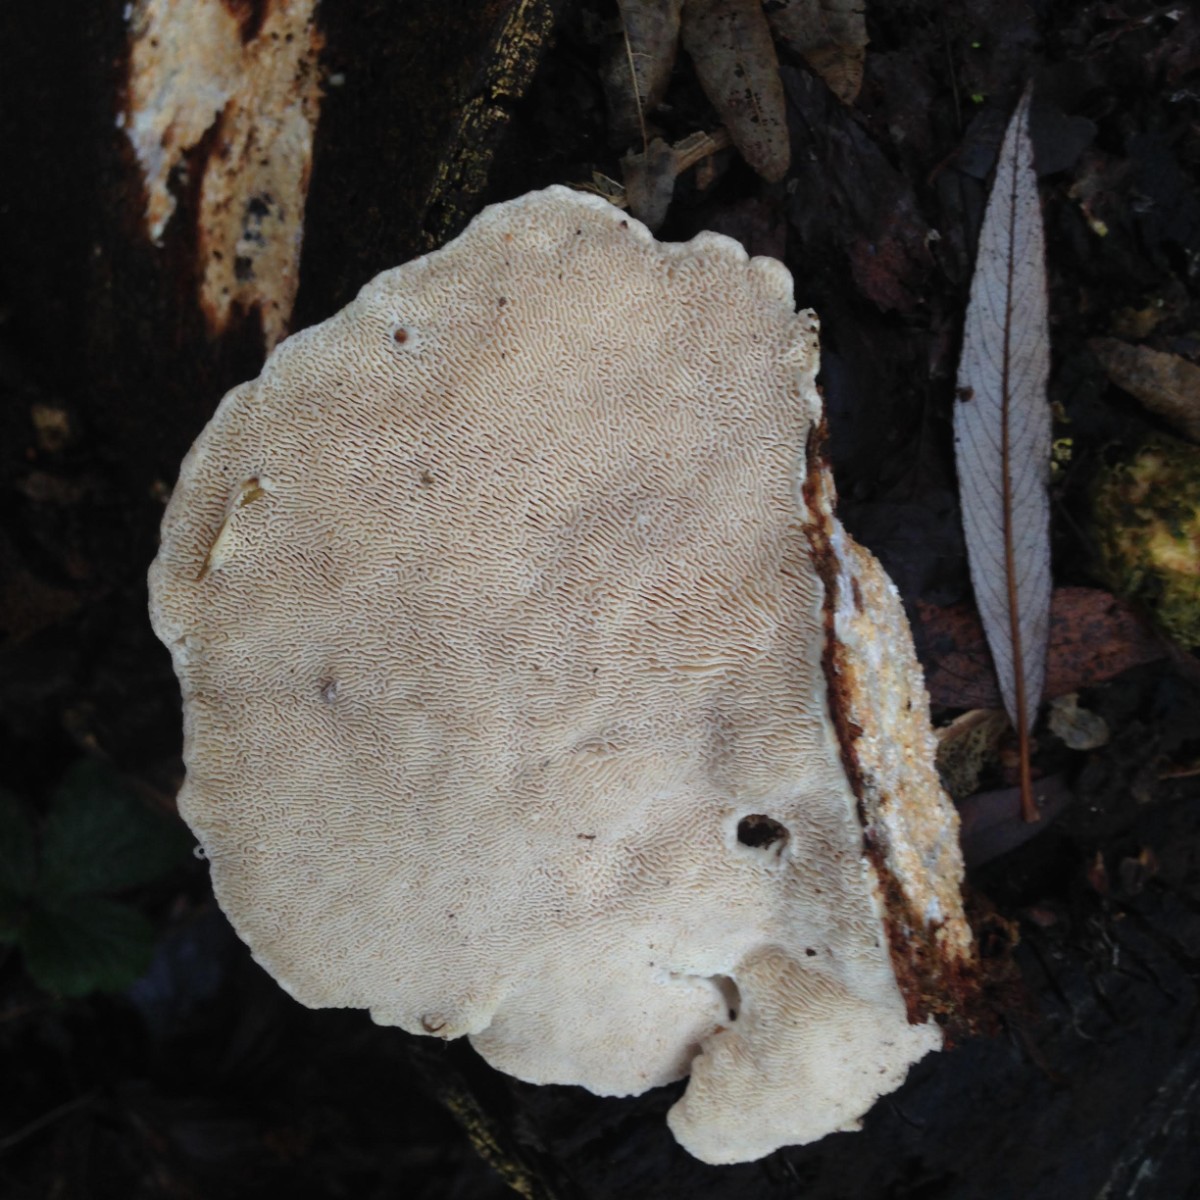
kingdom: Fungi
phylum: Basidiomycota
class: Agaricomycetes
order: Polyporales
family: Polyporaceae
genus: Trametes
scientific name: Trametes gibbosa
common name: puklet læderporesvamp
